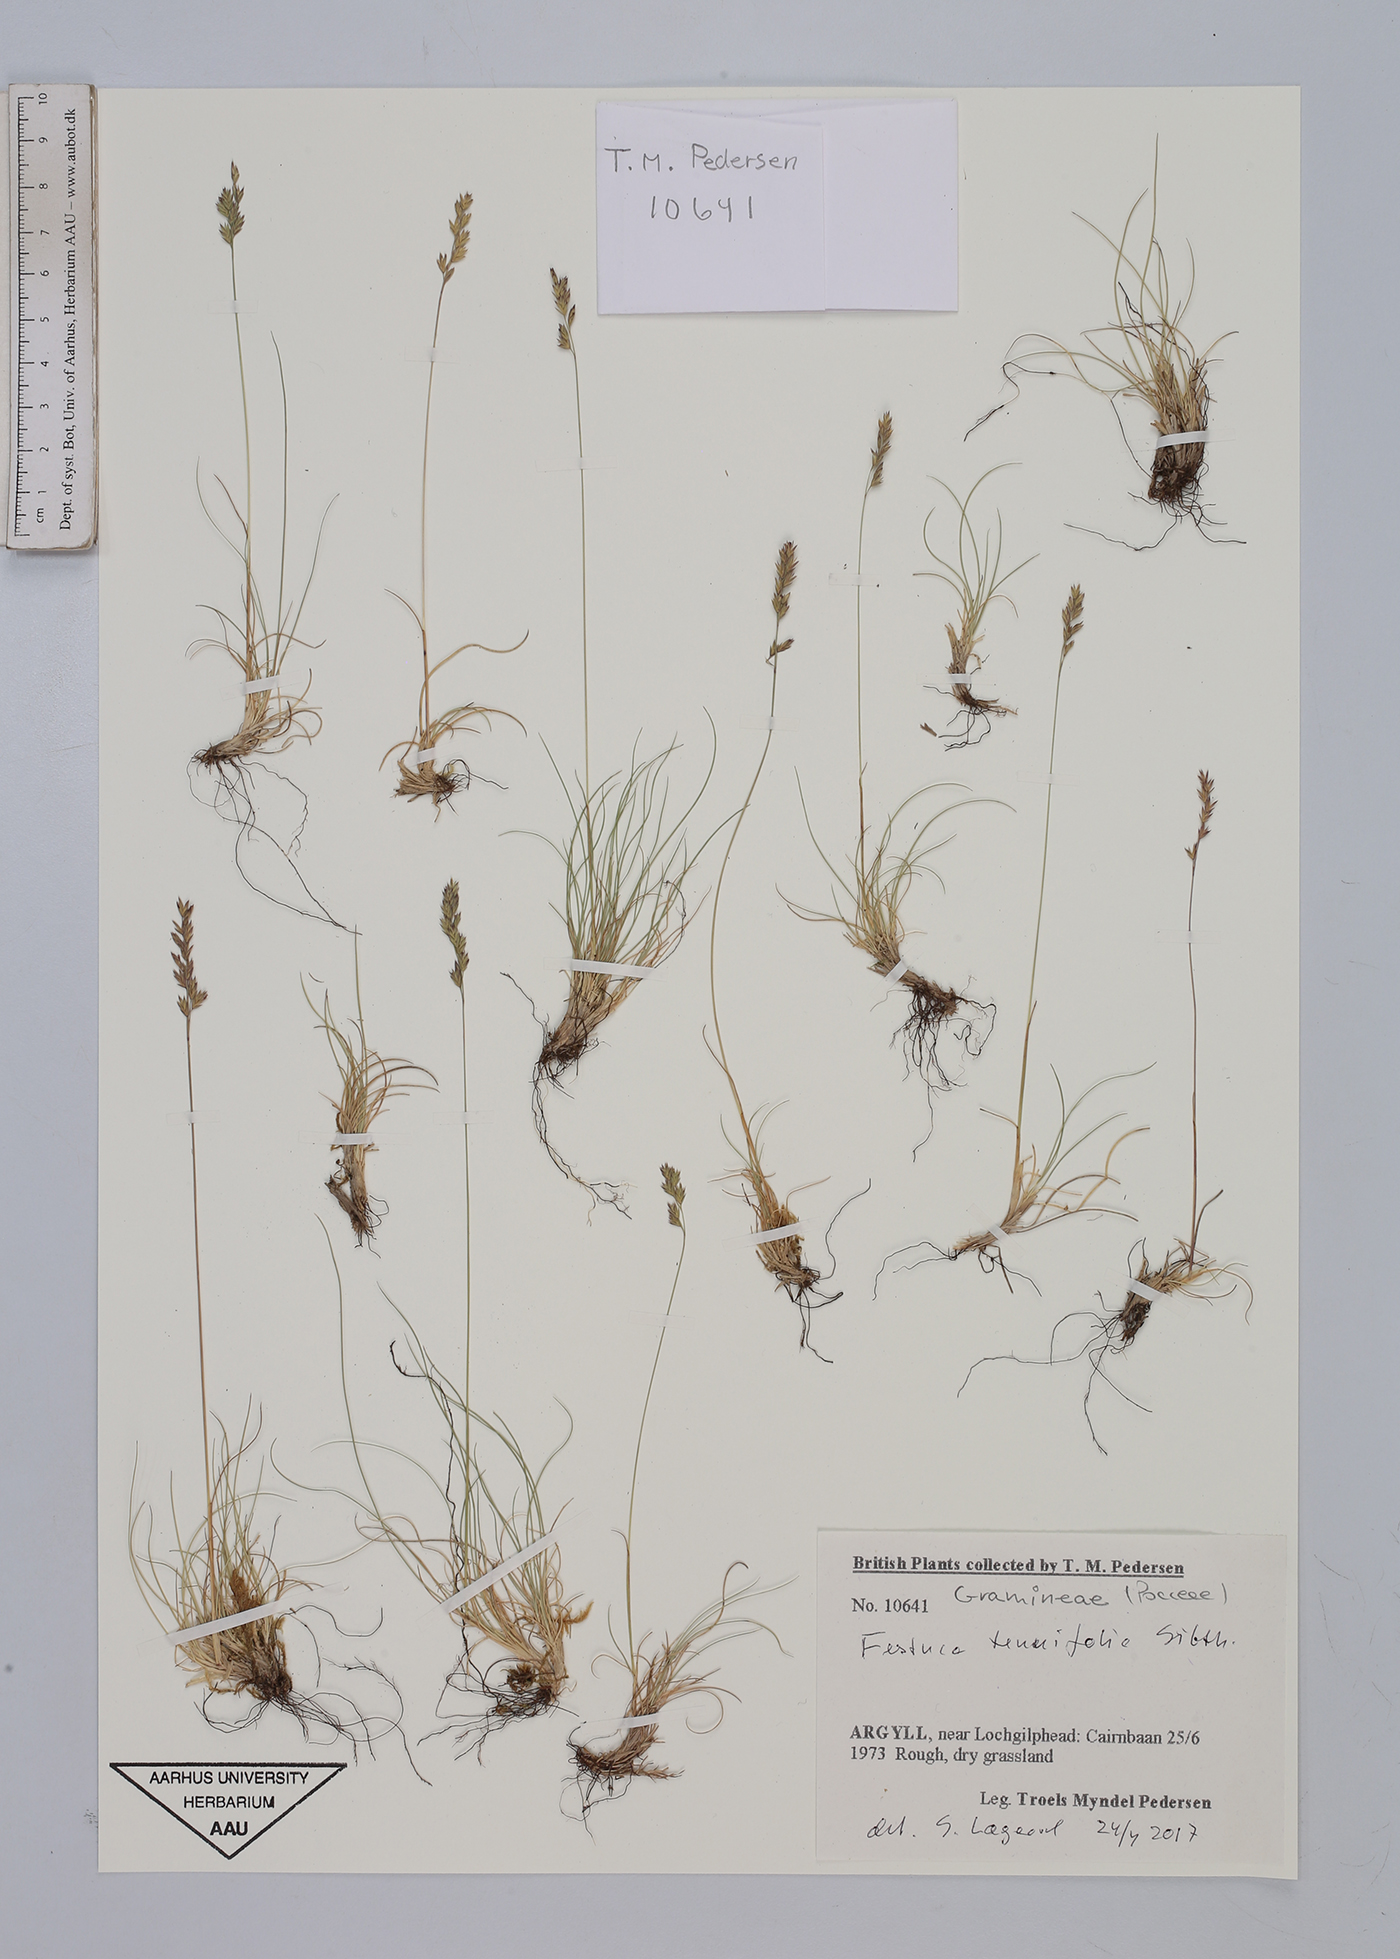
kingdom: Plantae
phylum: Tracheophyta
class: Liliopsida
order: Poales
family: Poaceae
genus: Festuca
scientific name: Festuca maritima
